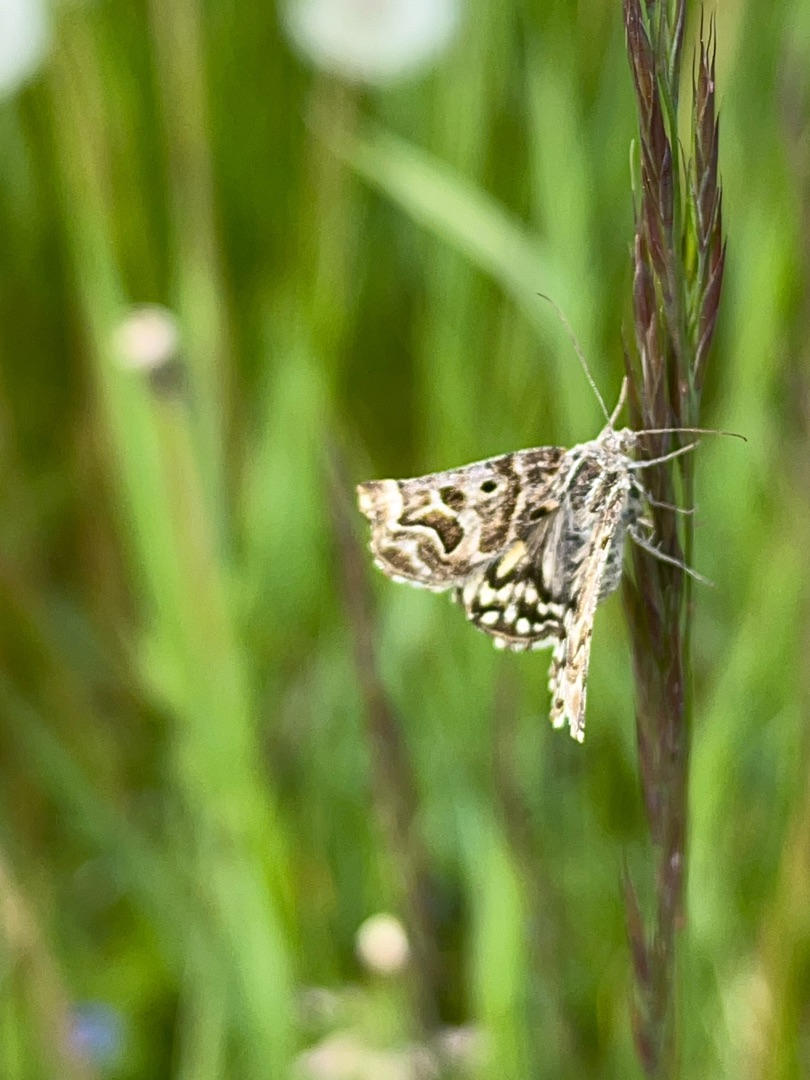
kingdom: Animalia
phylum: Arthropoda
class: Insecta
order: Lepidoptera
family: Erebidae
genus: Callistege
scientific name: Callistege mi
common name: Marmoreret kløverugle
